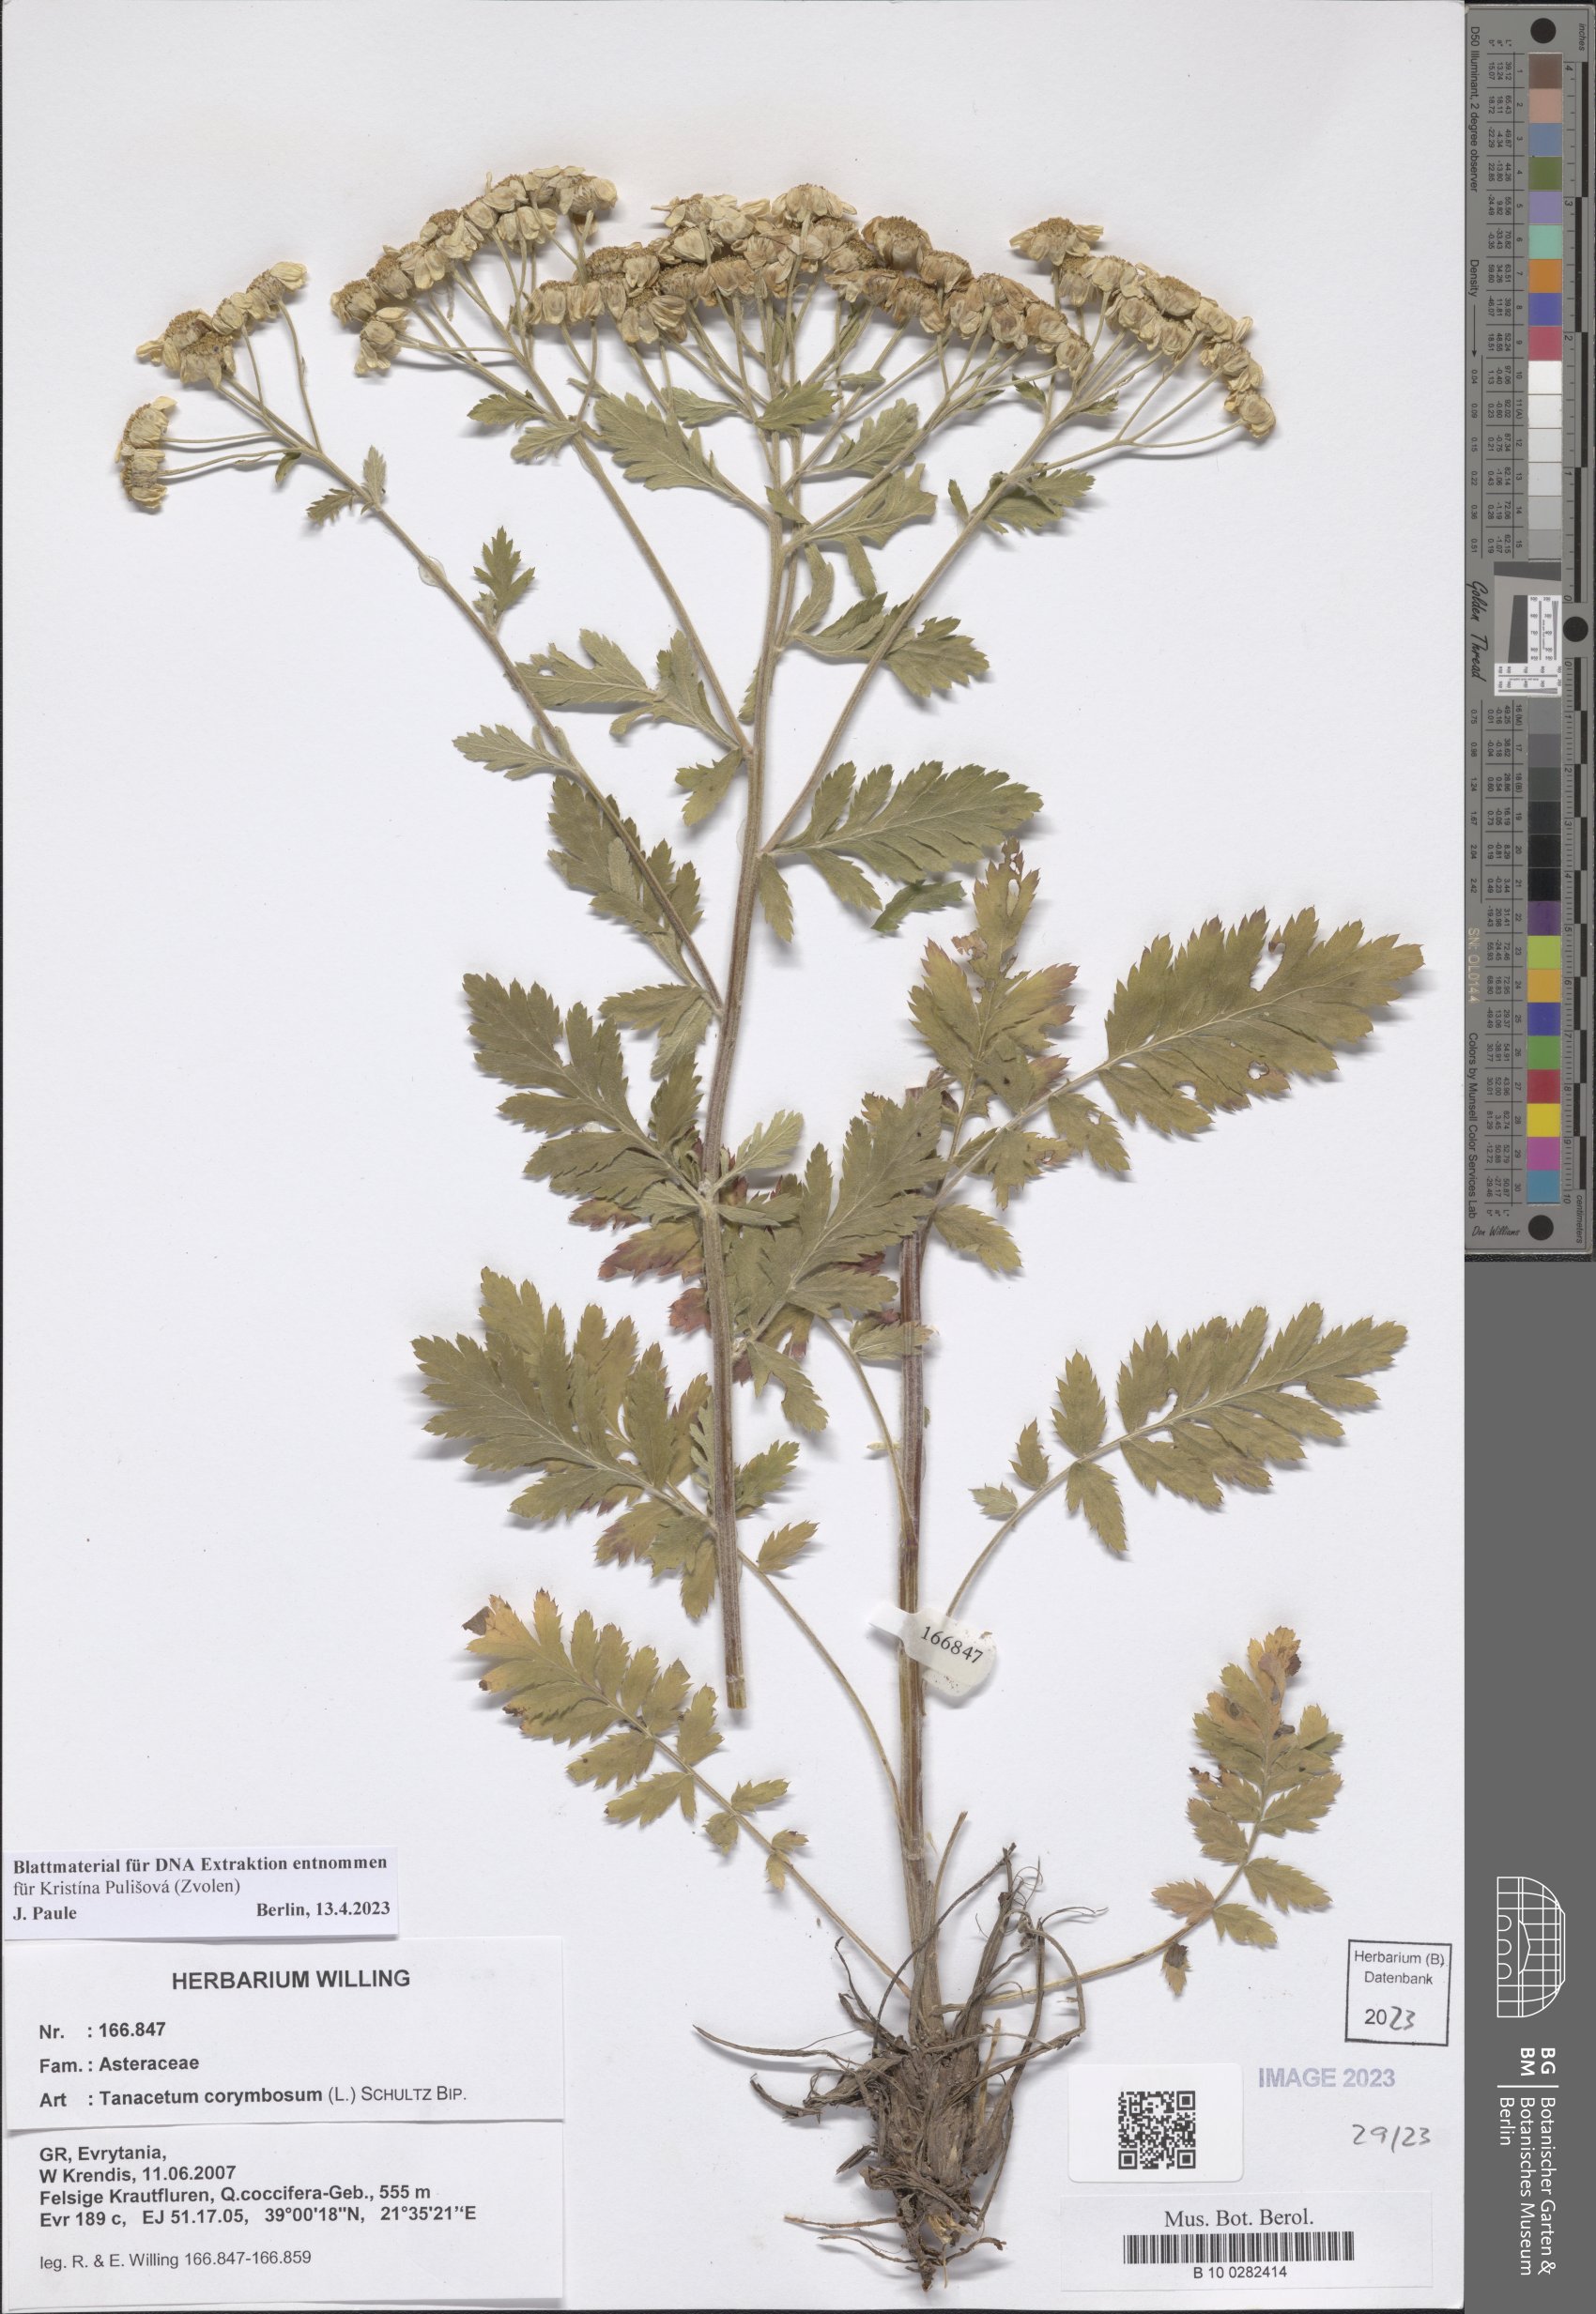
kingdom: Plantae
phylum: Tracheophyta
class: Magnoliopsida
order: Asterales
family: Asteraceae
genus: Tanacetum
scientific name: Tanacetum corymbosum
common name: Scentless feverfew
